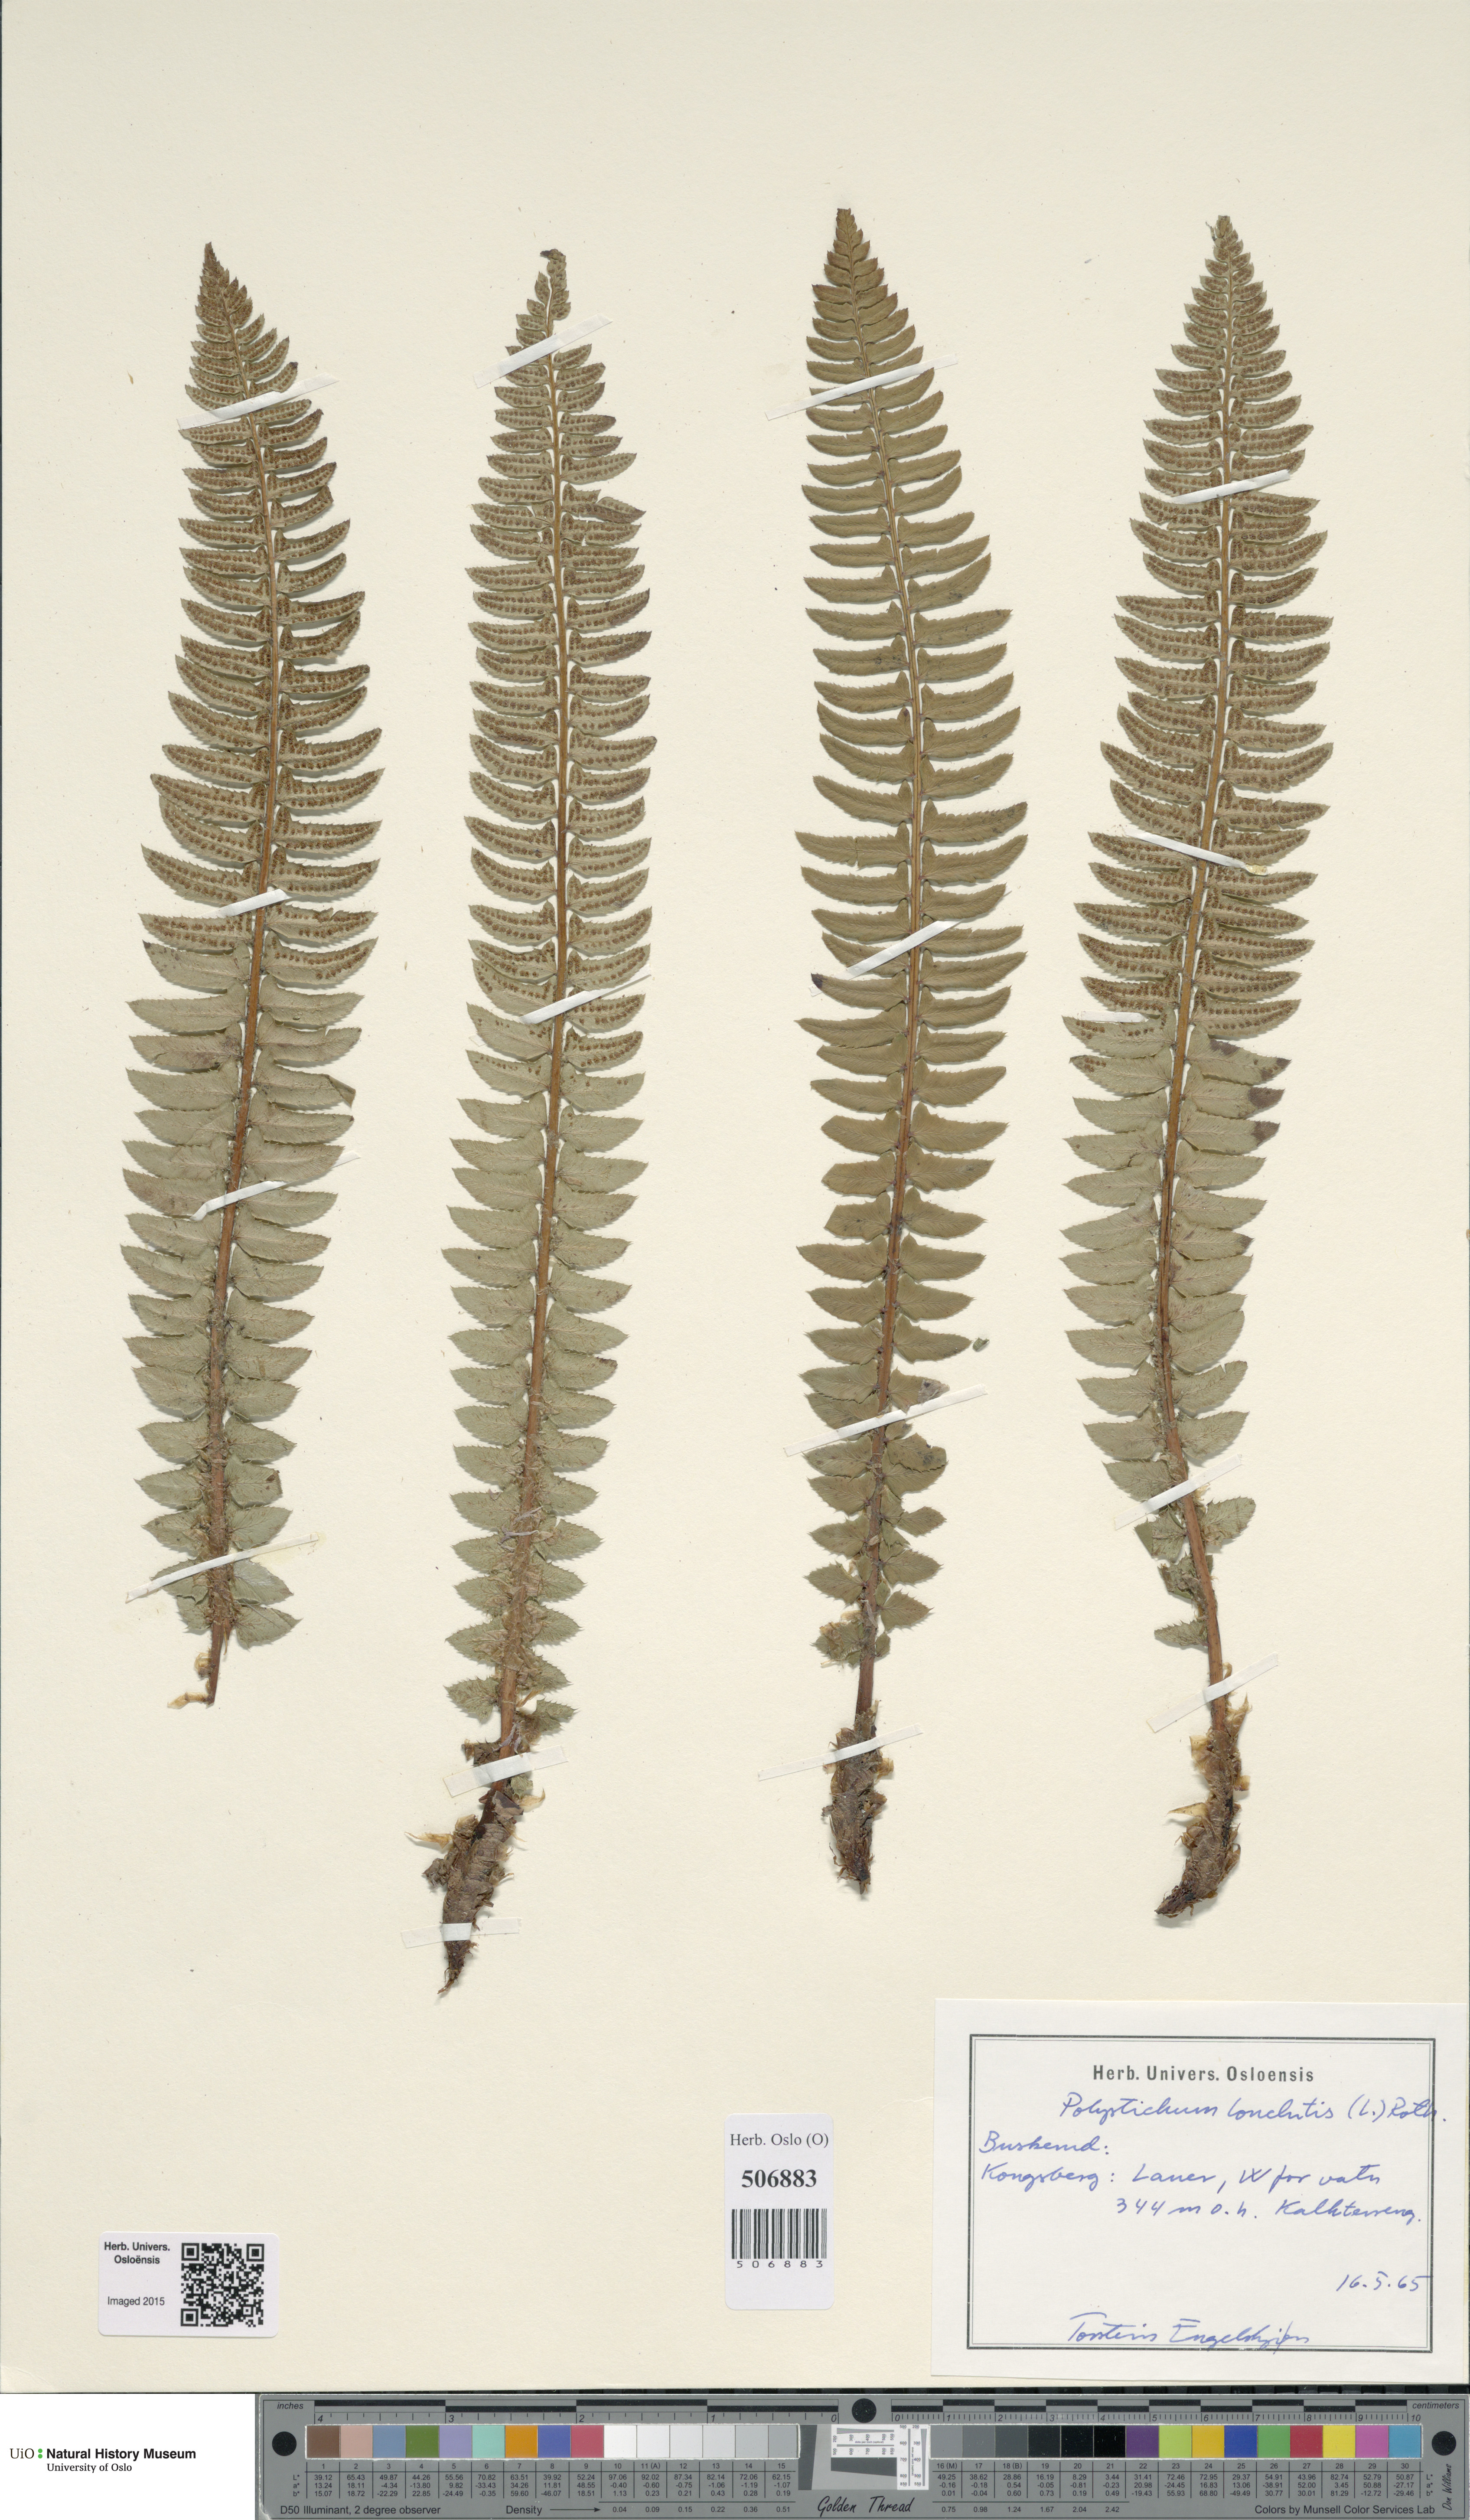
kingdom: Plantae
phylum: Tracheophyta
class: Polypodiopsida
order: Polypodiales
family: Dryopteridaceae
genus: Polystichum
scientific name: Polystichum lonchitis
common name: Holly fern
